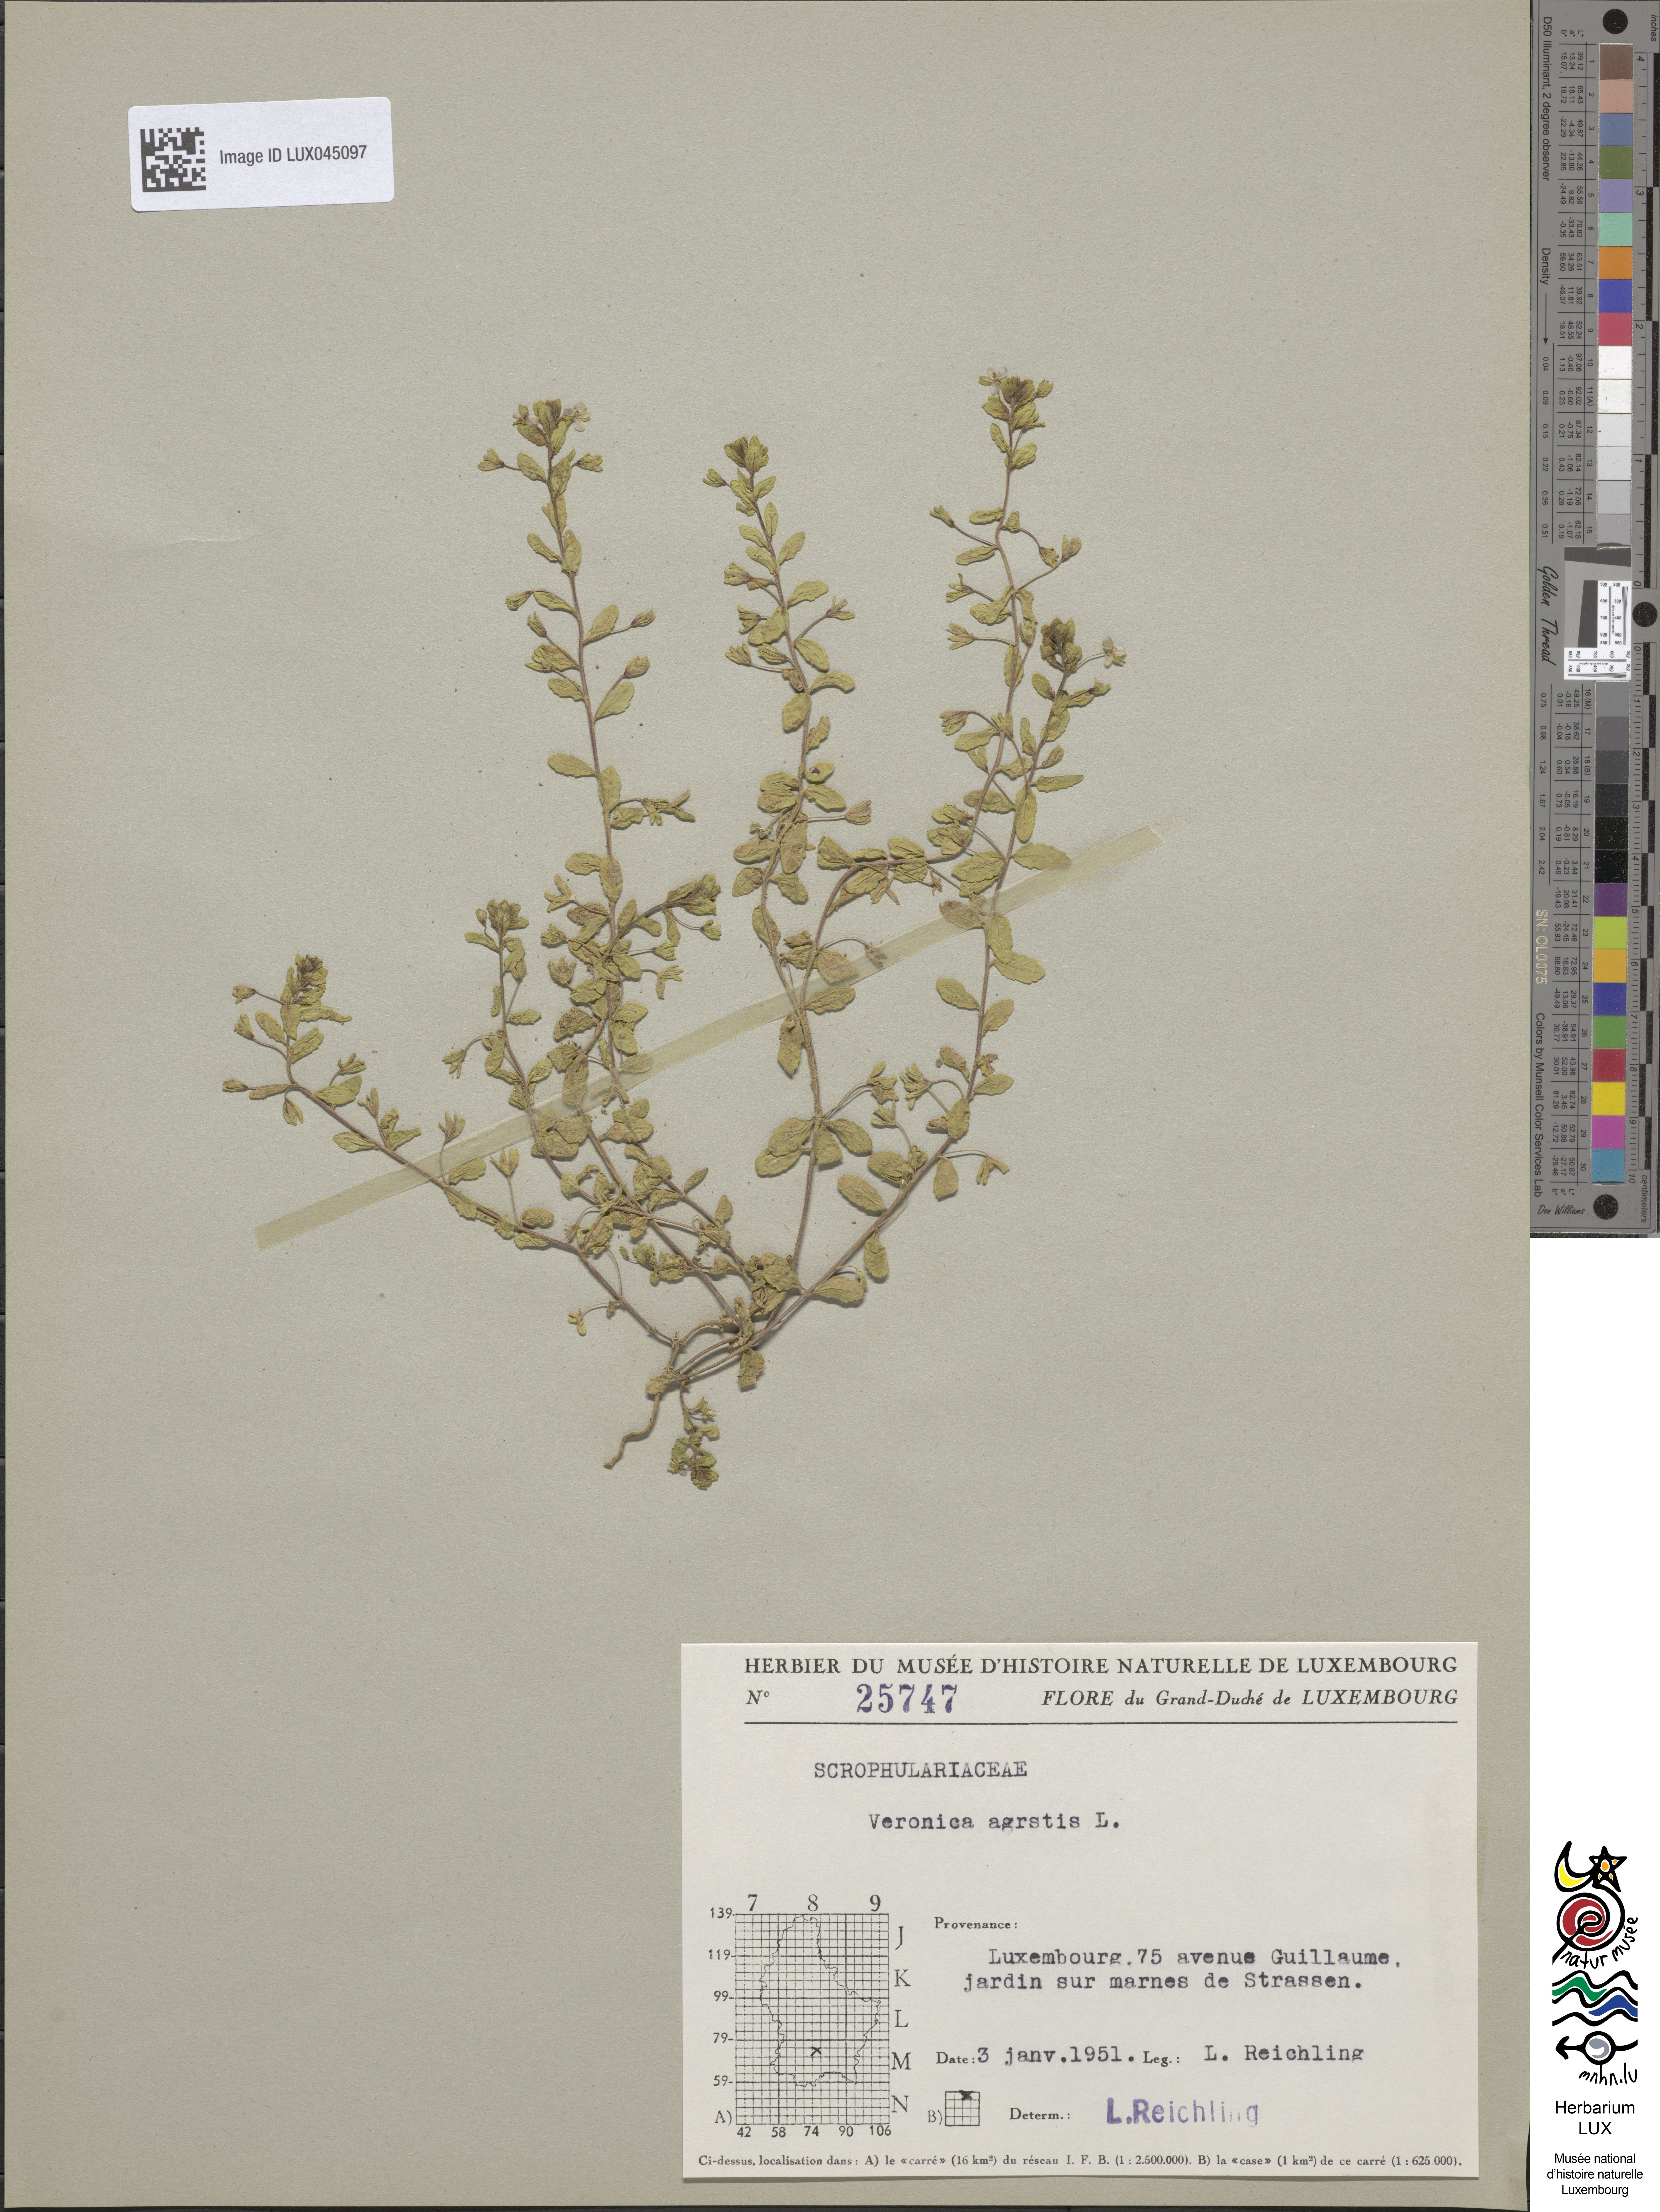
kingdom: Plantae
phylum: Tracheophyta
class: Magnoliopsida
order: Lamiales
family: Plantaginaceae
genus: Veronica
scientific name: Veronica agrestis
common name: Green field-speedwell
